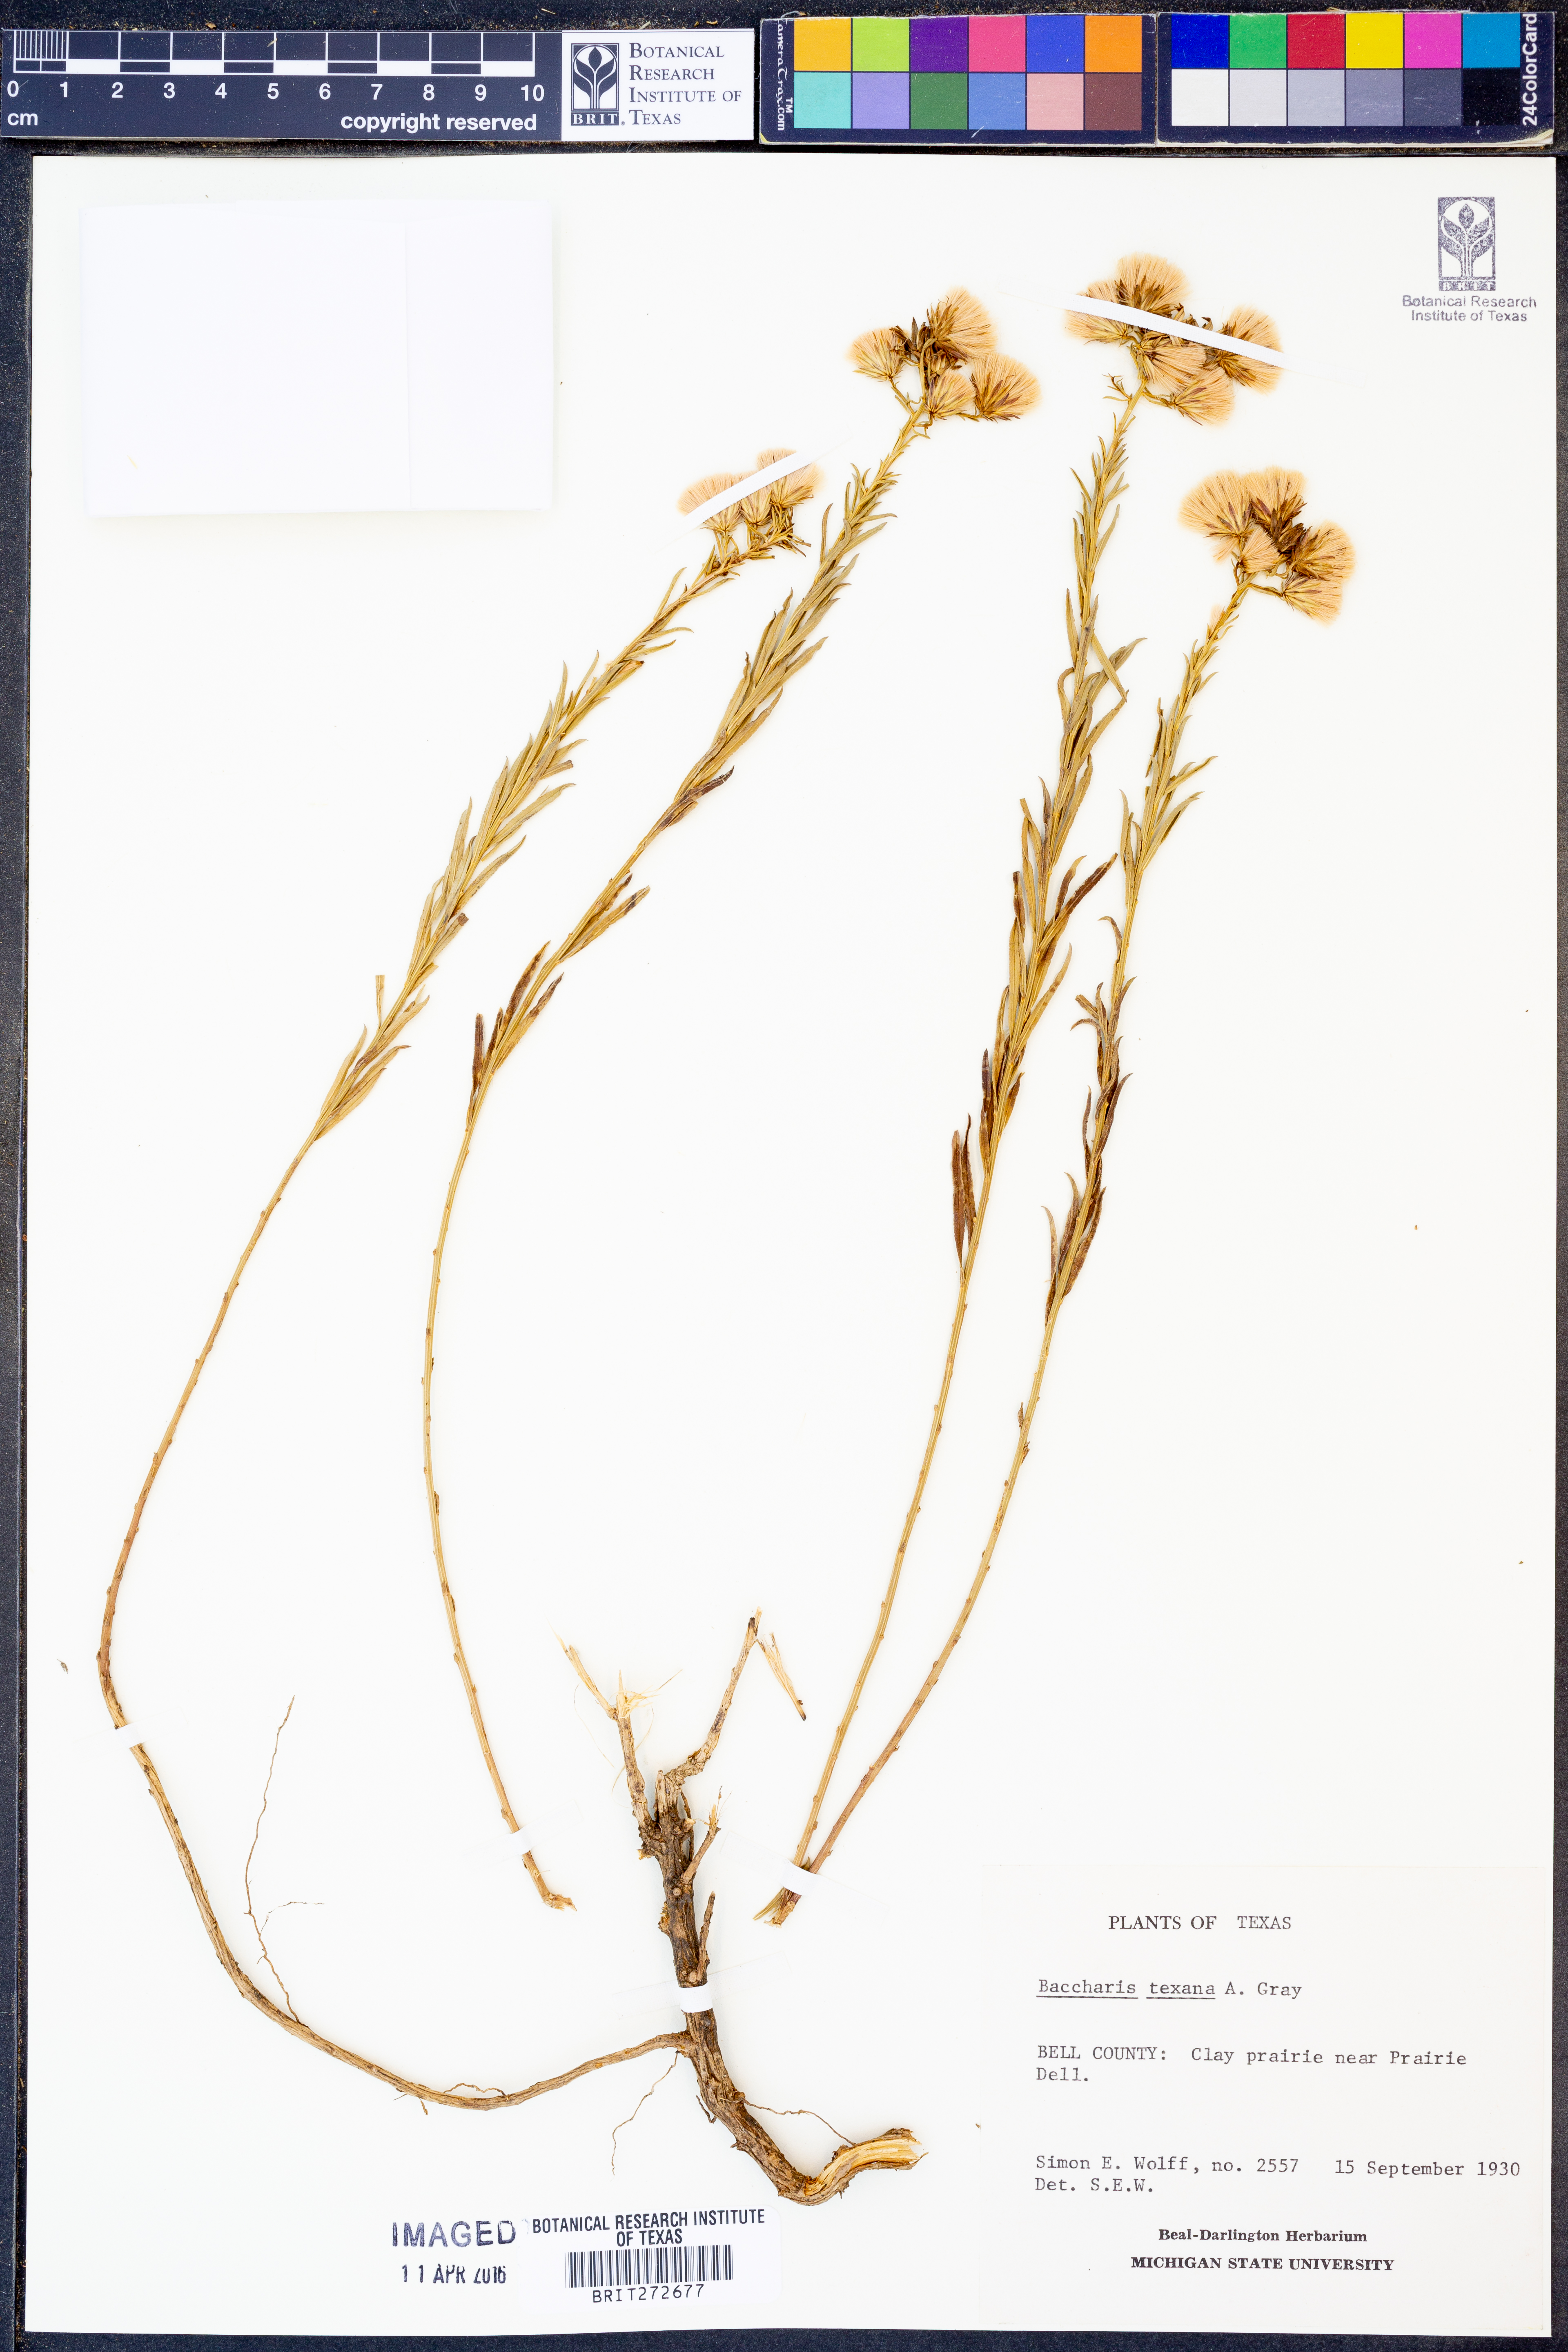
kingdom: Plantae
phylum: Tracheophyta
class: Magnoliopsida
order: Asterales
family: Asteraceae
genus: Baccharis
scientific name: Baccharis texana
